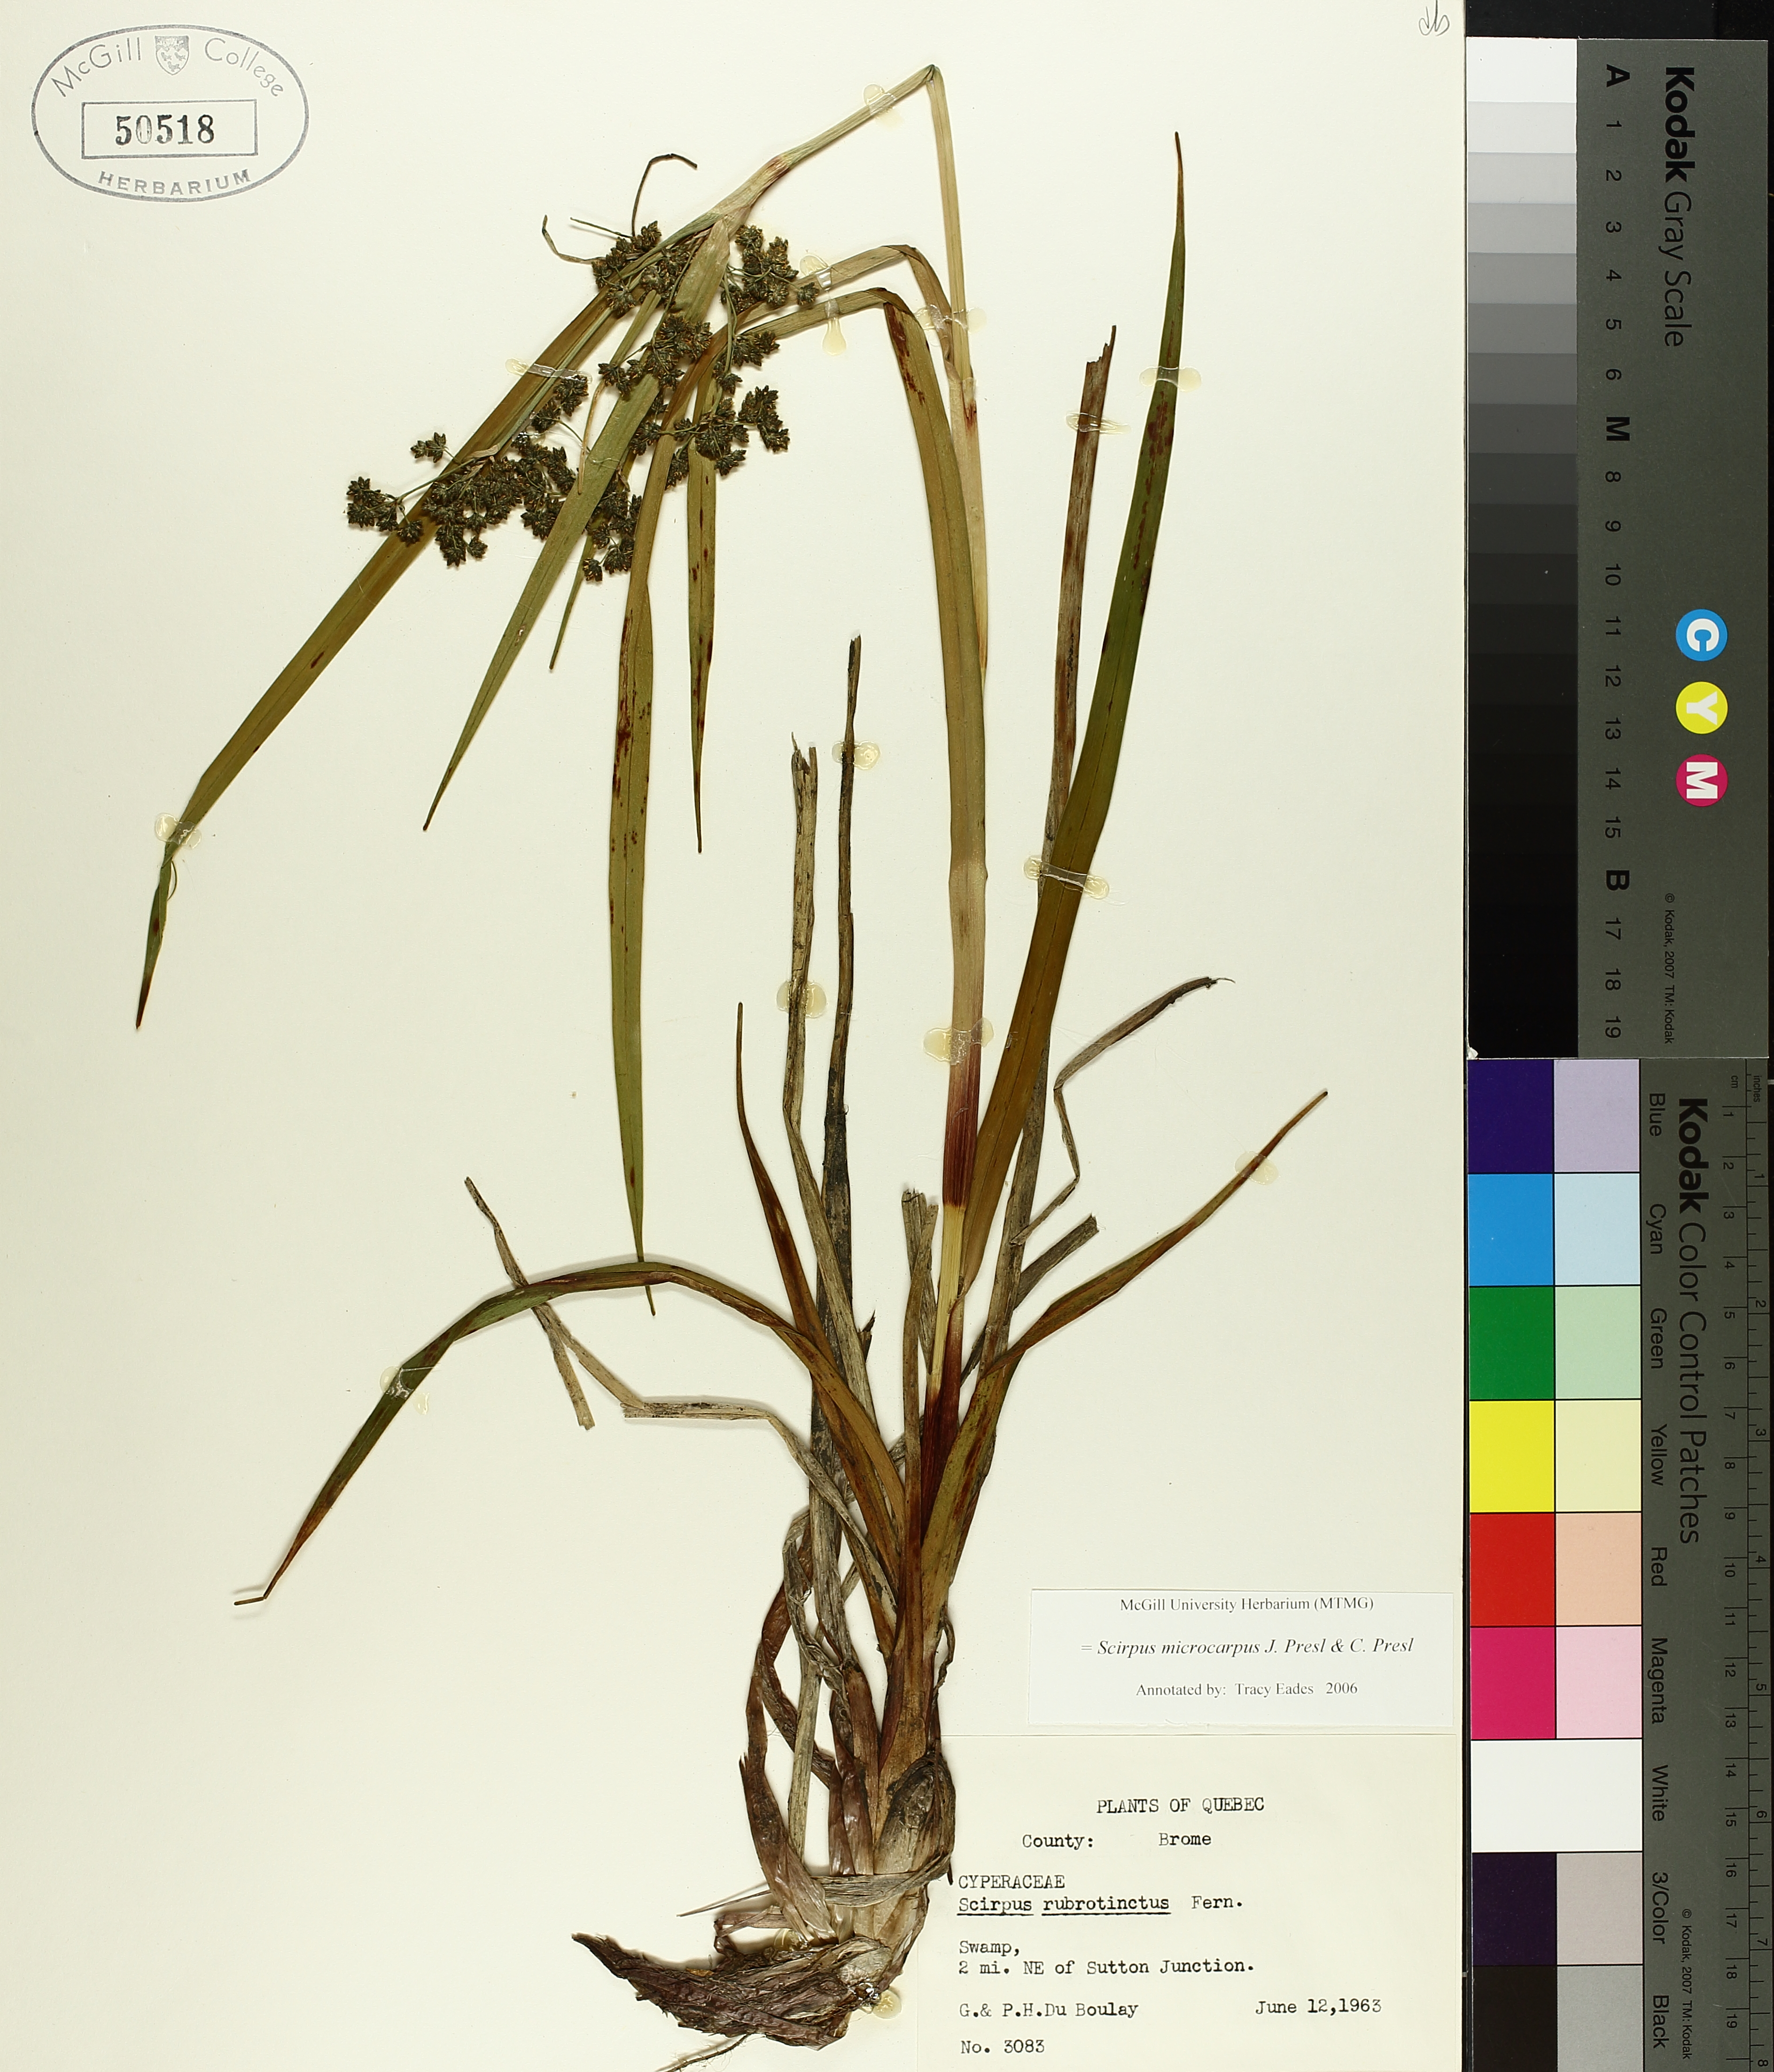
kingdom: Plantae
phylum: Tracheophyta
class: Liliopsida
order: Poales
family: Cyperaceae
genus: Scirpus
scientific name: Scirpus microcarpus
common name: Panicled bulrush
